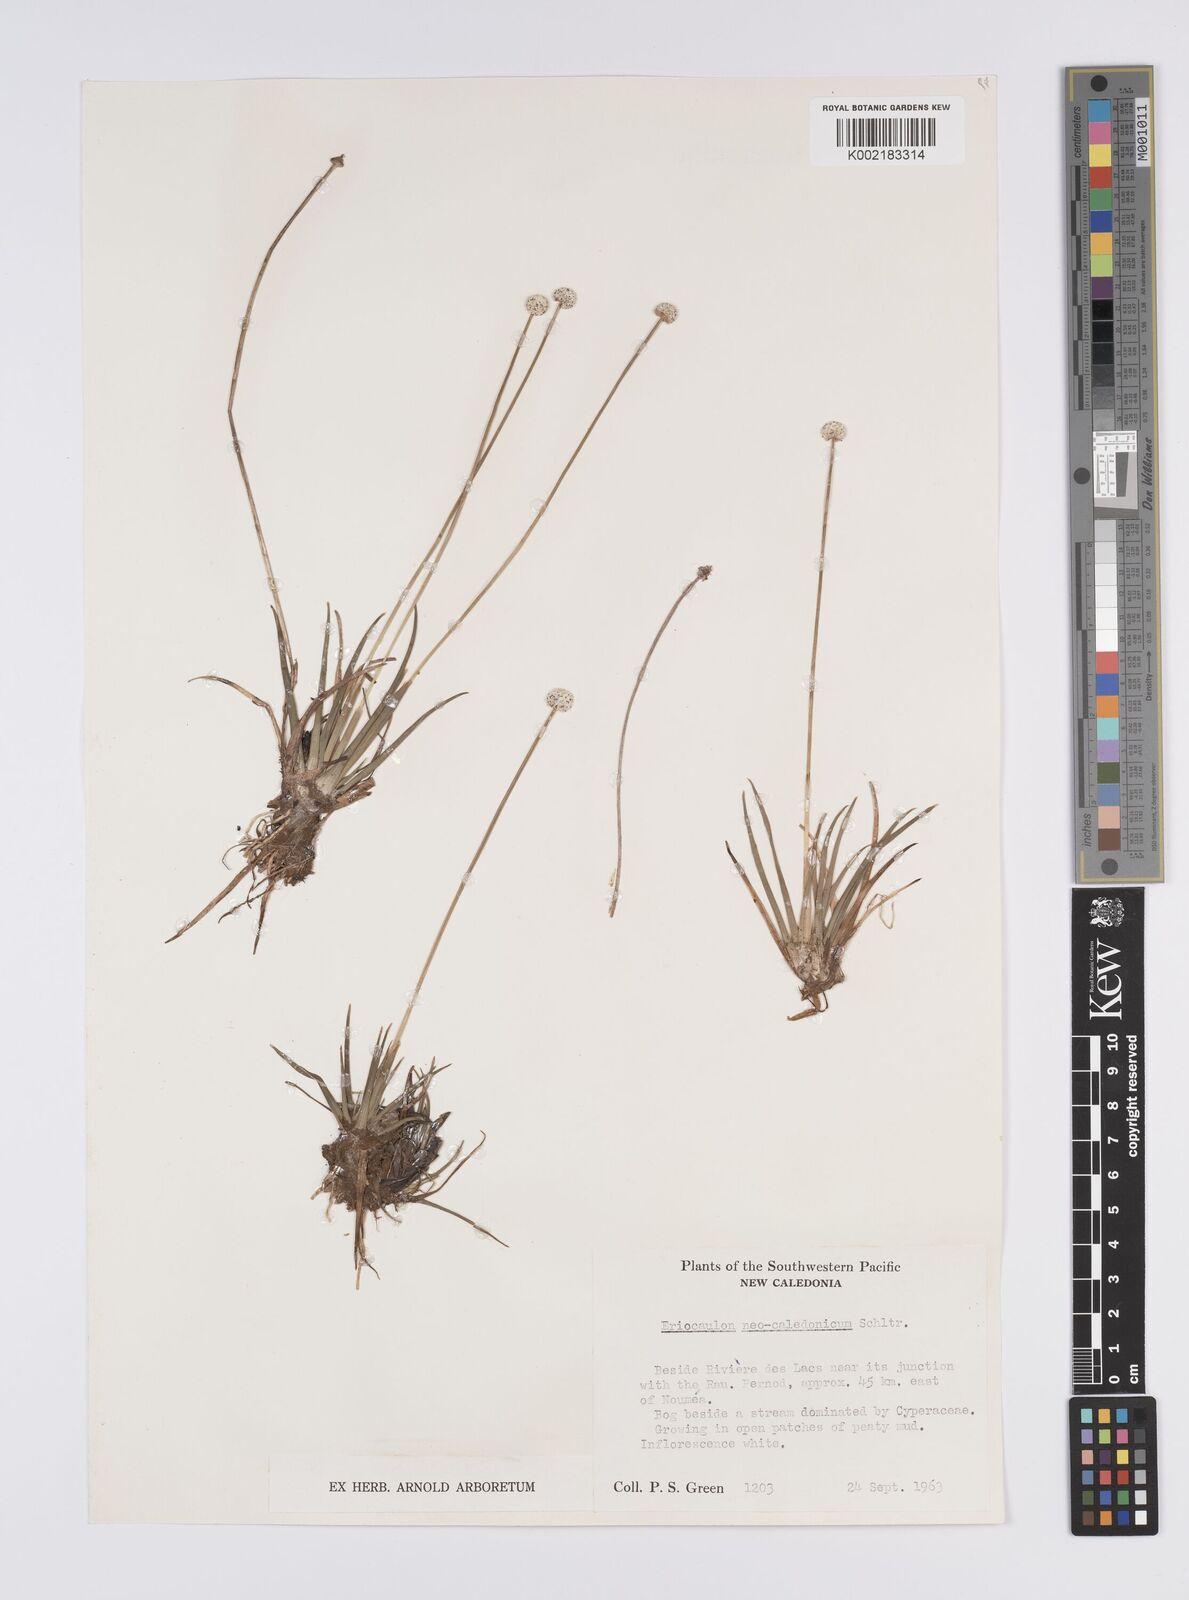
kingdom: Plantae
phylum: Tracheophyta
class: Liliopsida
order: Poales
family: Eriocaulaceae
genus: Eriocaulon
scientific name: Eriocaulon neocaledonicum
